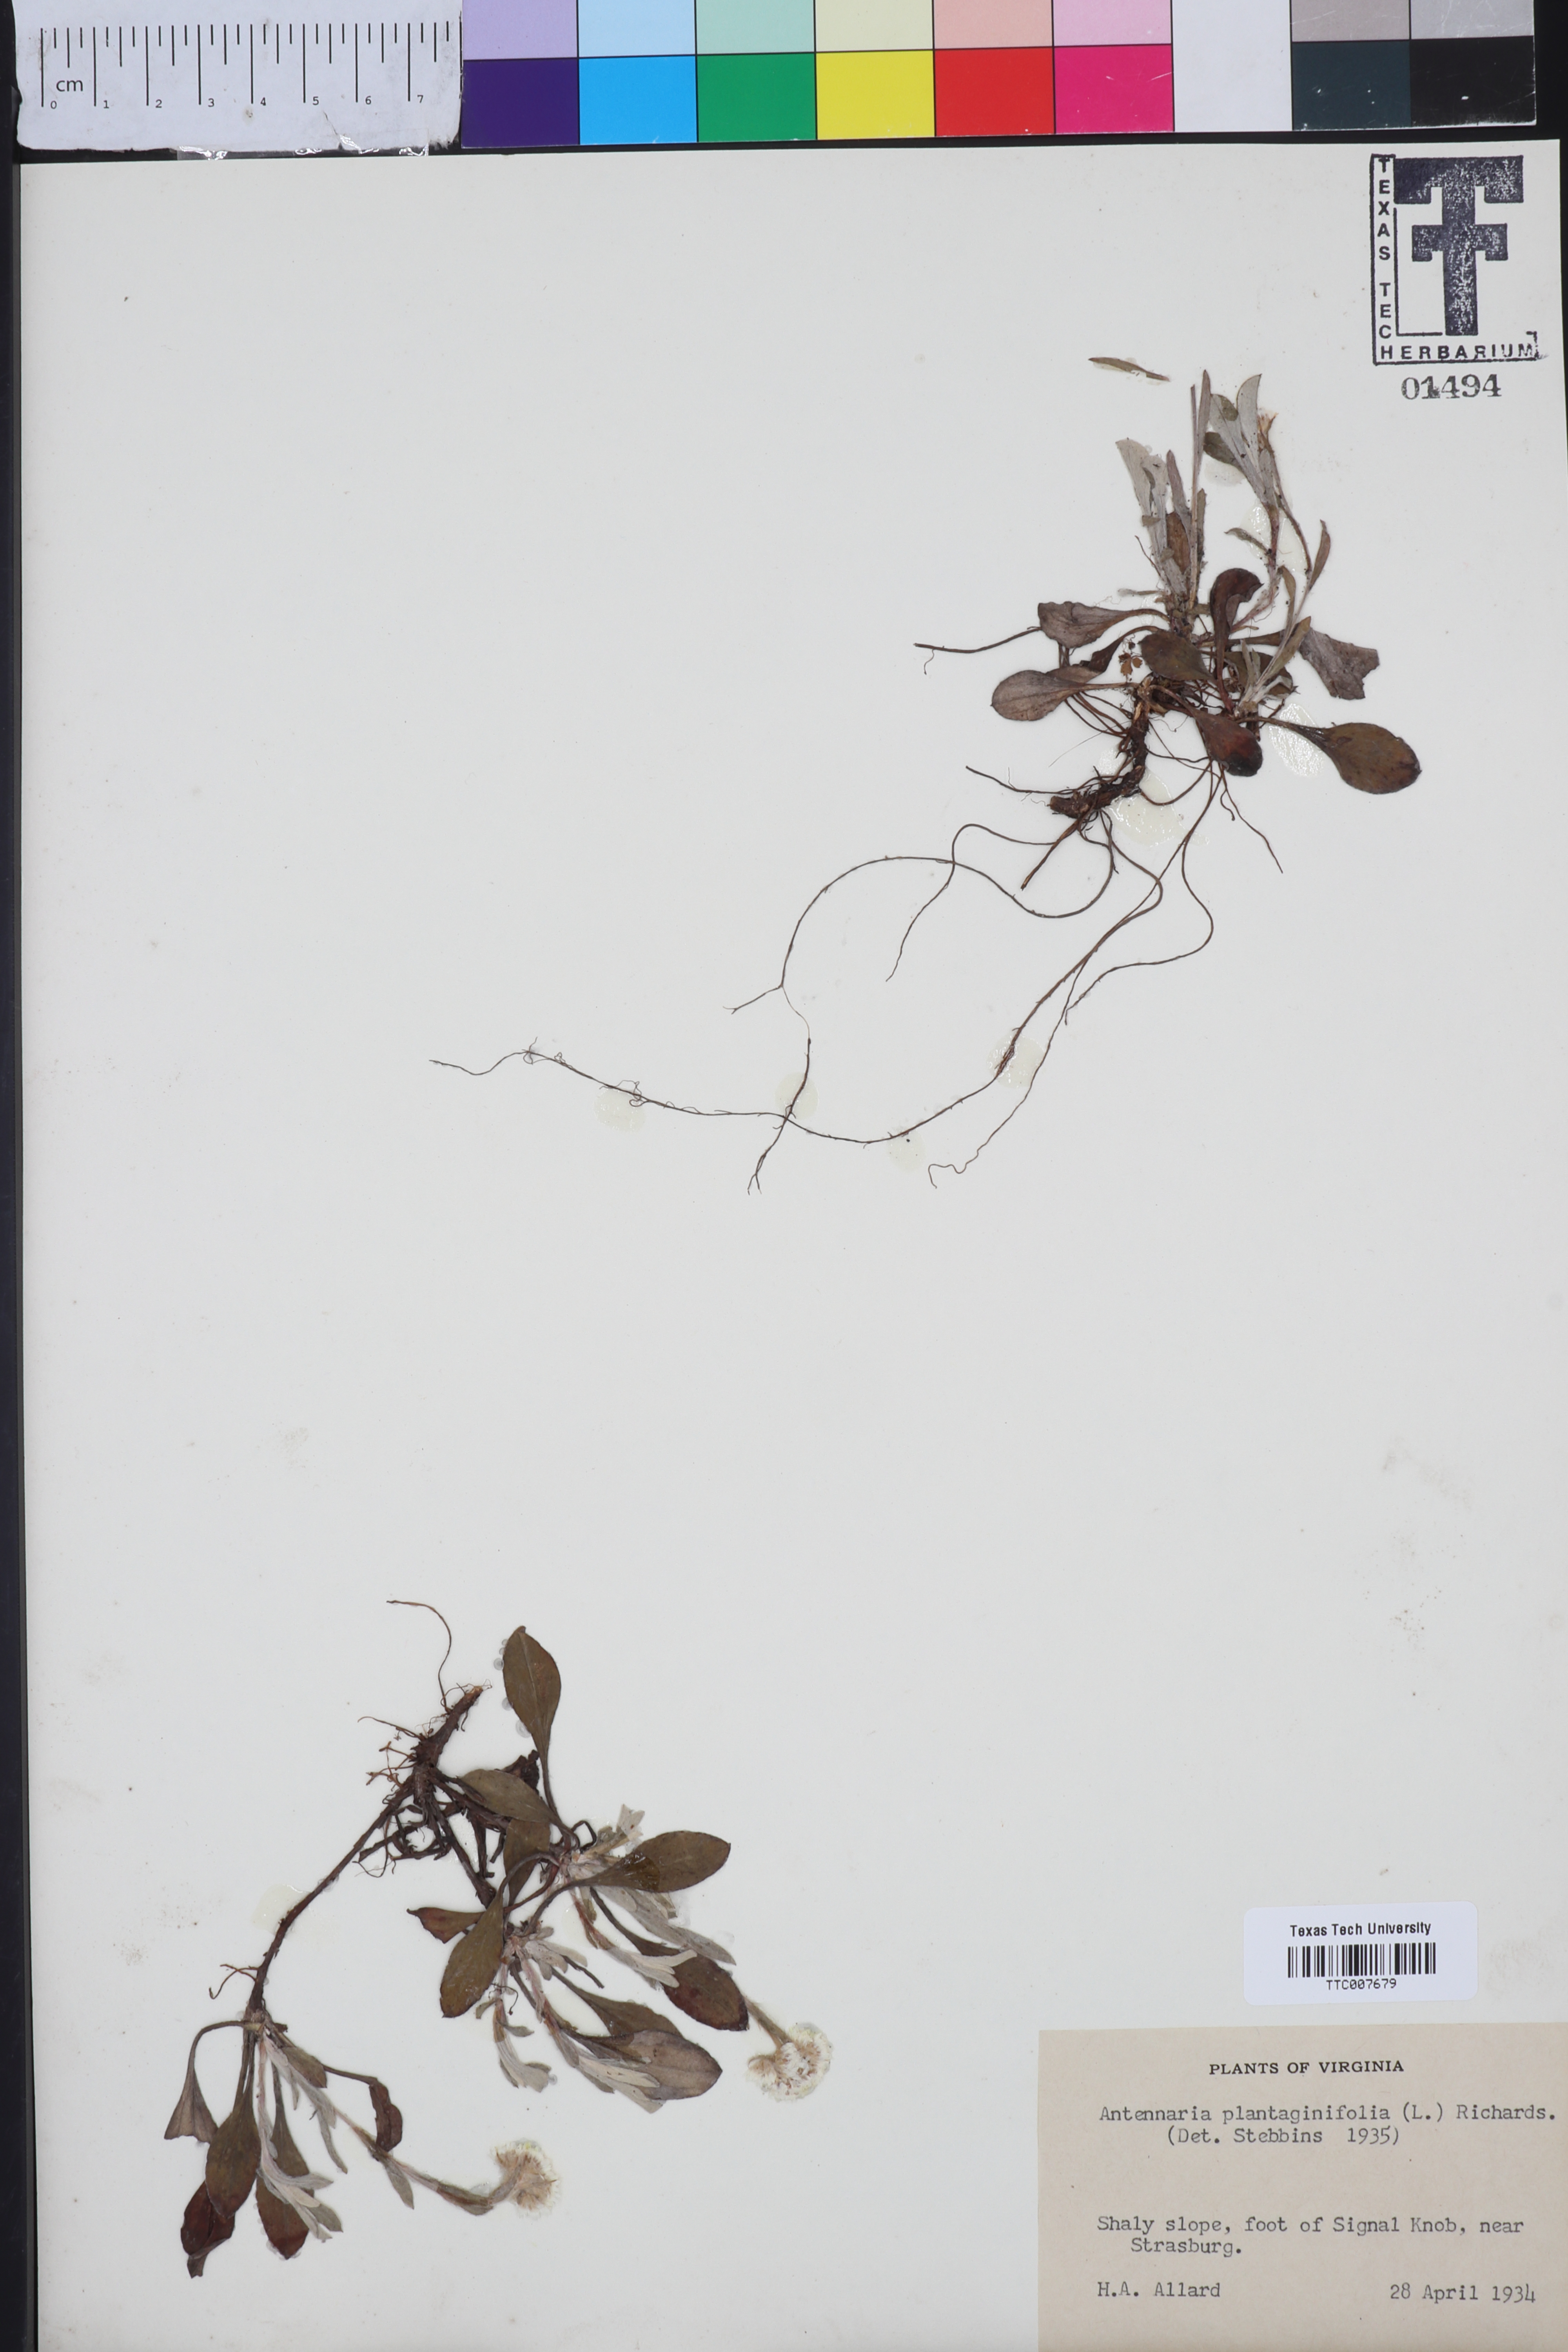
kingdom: Plantae
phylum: Tracheophyta
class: Magnoliopsida
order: Asterales
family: Asteraceae
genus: Antennaria
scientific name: Antennaria plantaginifolia
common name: Plantain-leaved pussytoes
